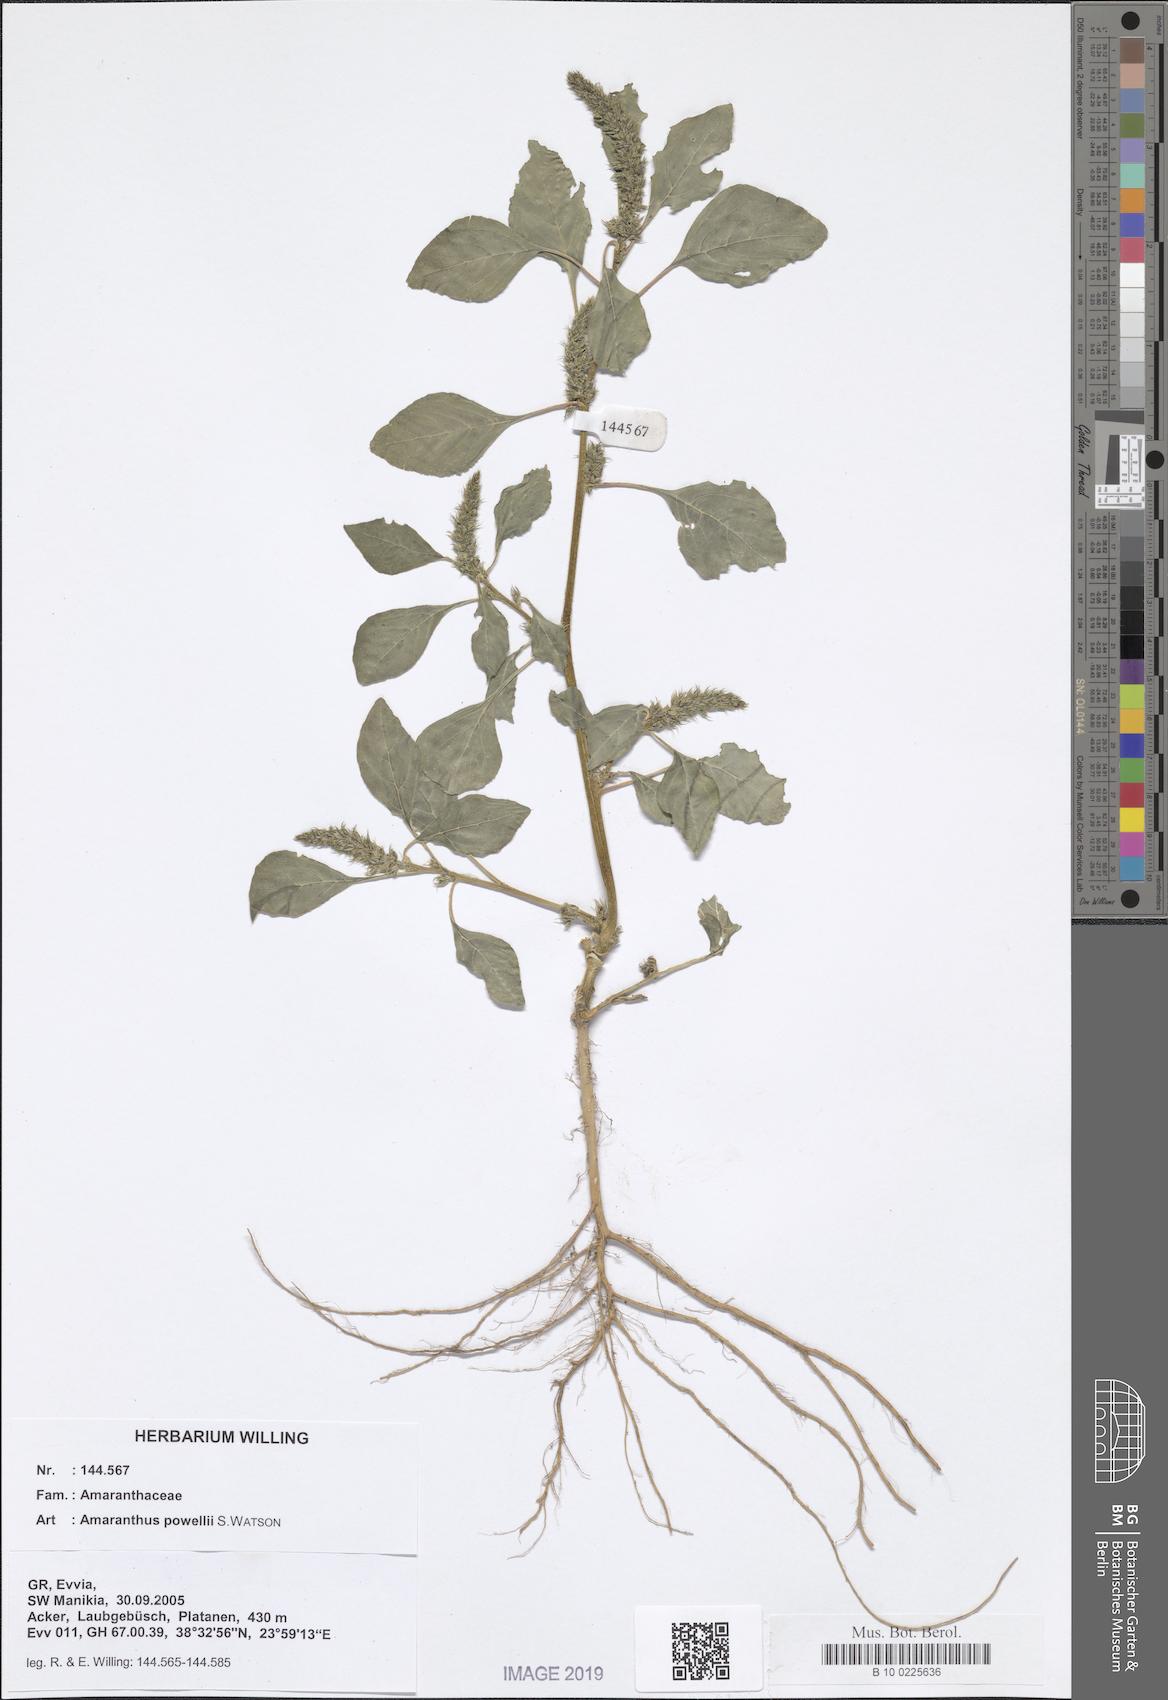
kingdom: Plantae
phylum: Tracheophyta
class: Magnoliopsida
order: Caryophyllales
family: Amaranthaceae
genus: Amaranthus
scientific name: Amaranthus powellii
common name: Powell's amaranth
